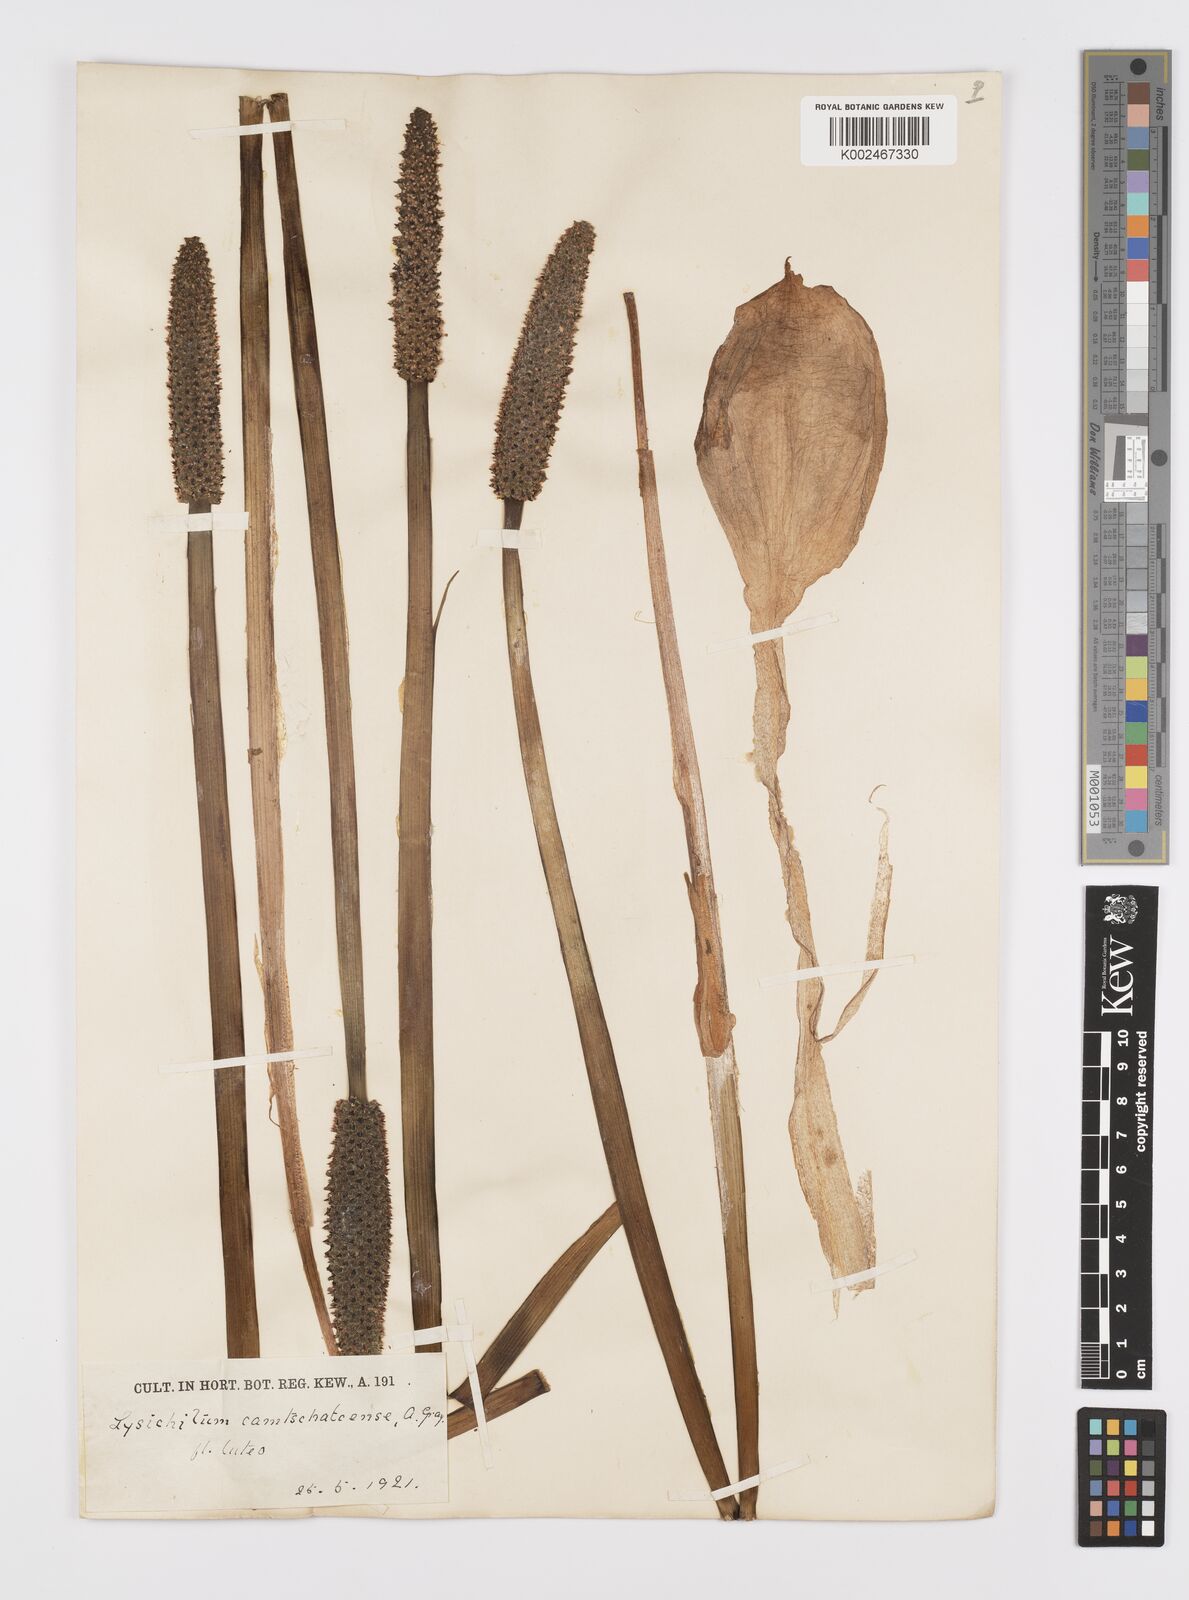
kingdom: Plantae
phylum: Tracheophyta
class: Liliopsida
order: Alismatales
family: Araceae
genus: Lysichiton
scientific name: Lysichiton americanus
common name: American skunk cabbage
